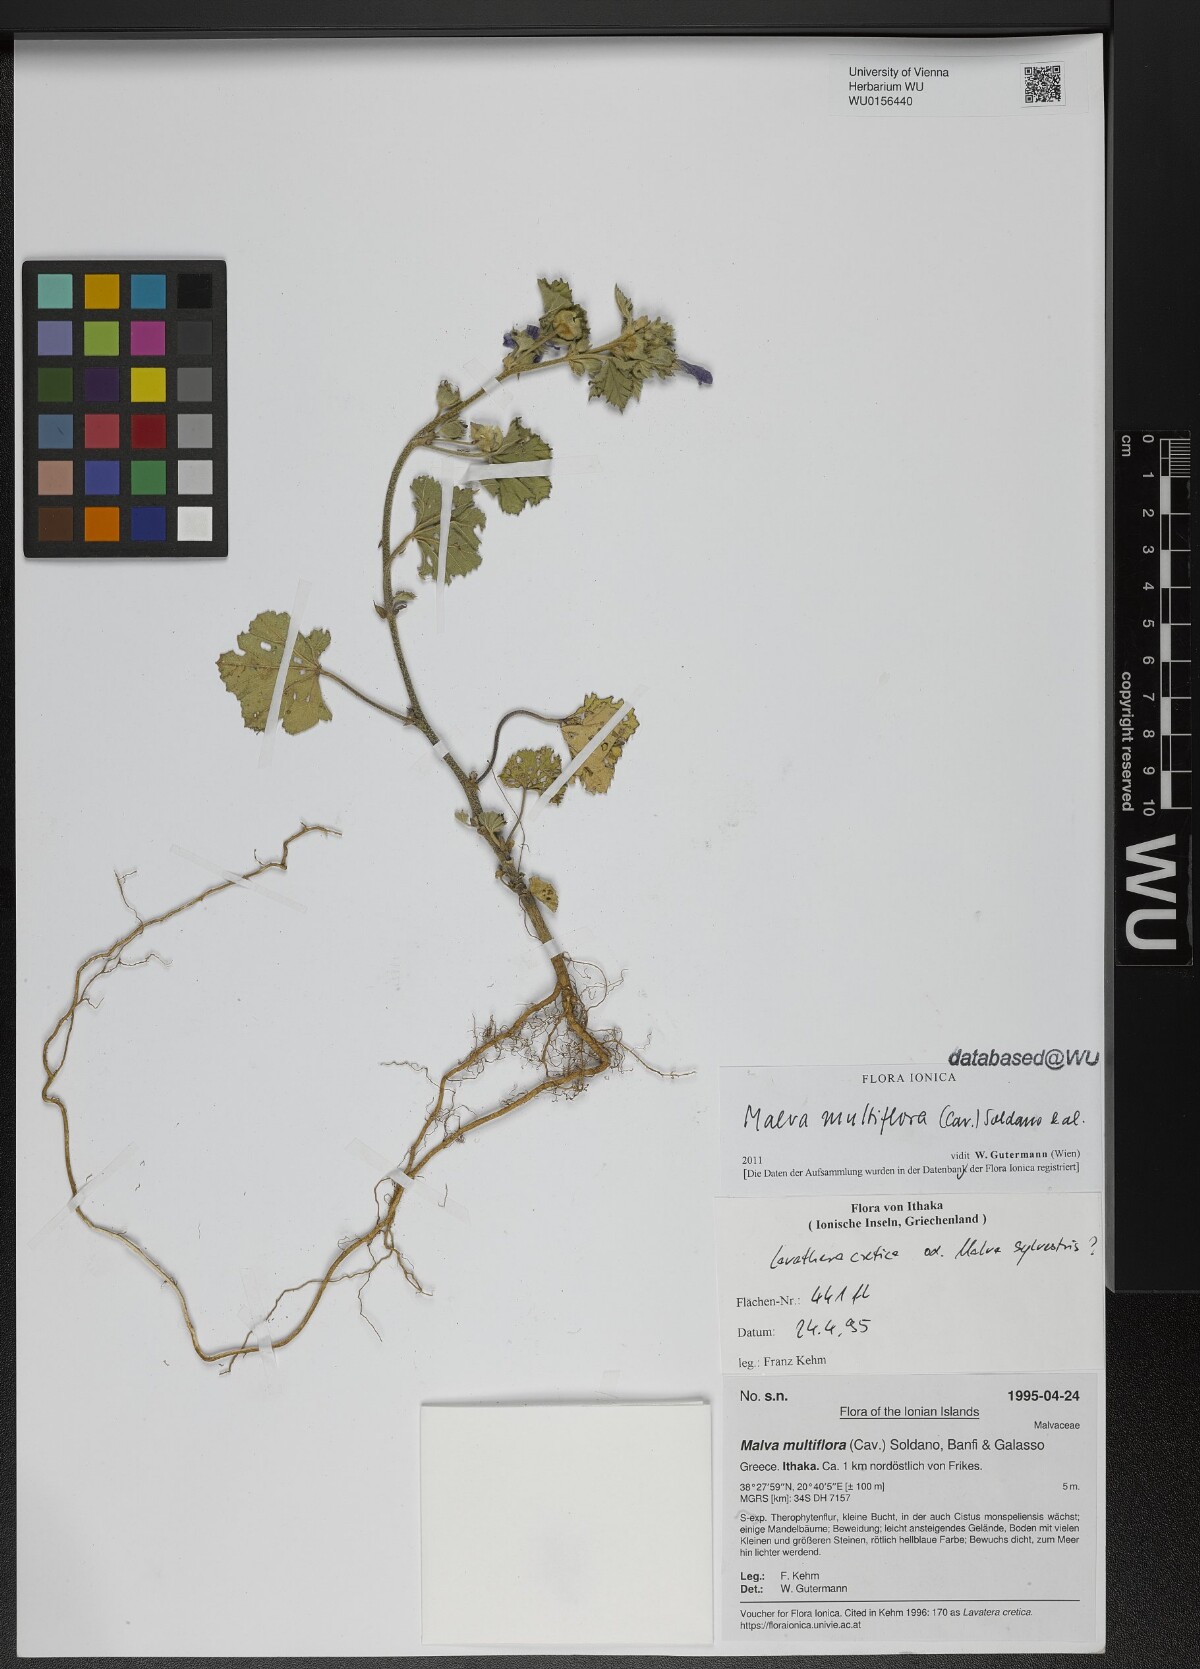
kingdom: Plantae
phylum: Tracheophyta
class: Magnoliopsida
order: Malvales
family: Malvaceae
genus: Malva
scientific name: Malva multiflora
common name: Cheeseweed
